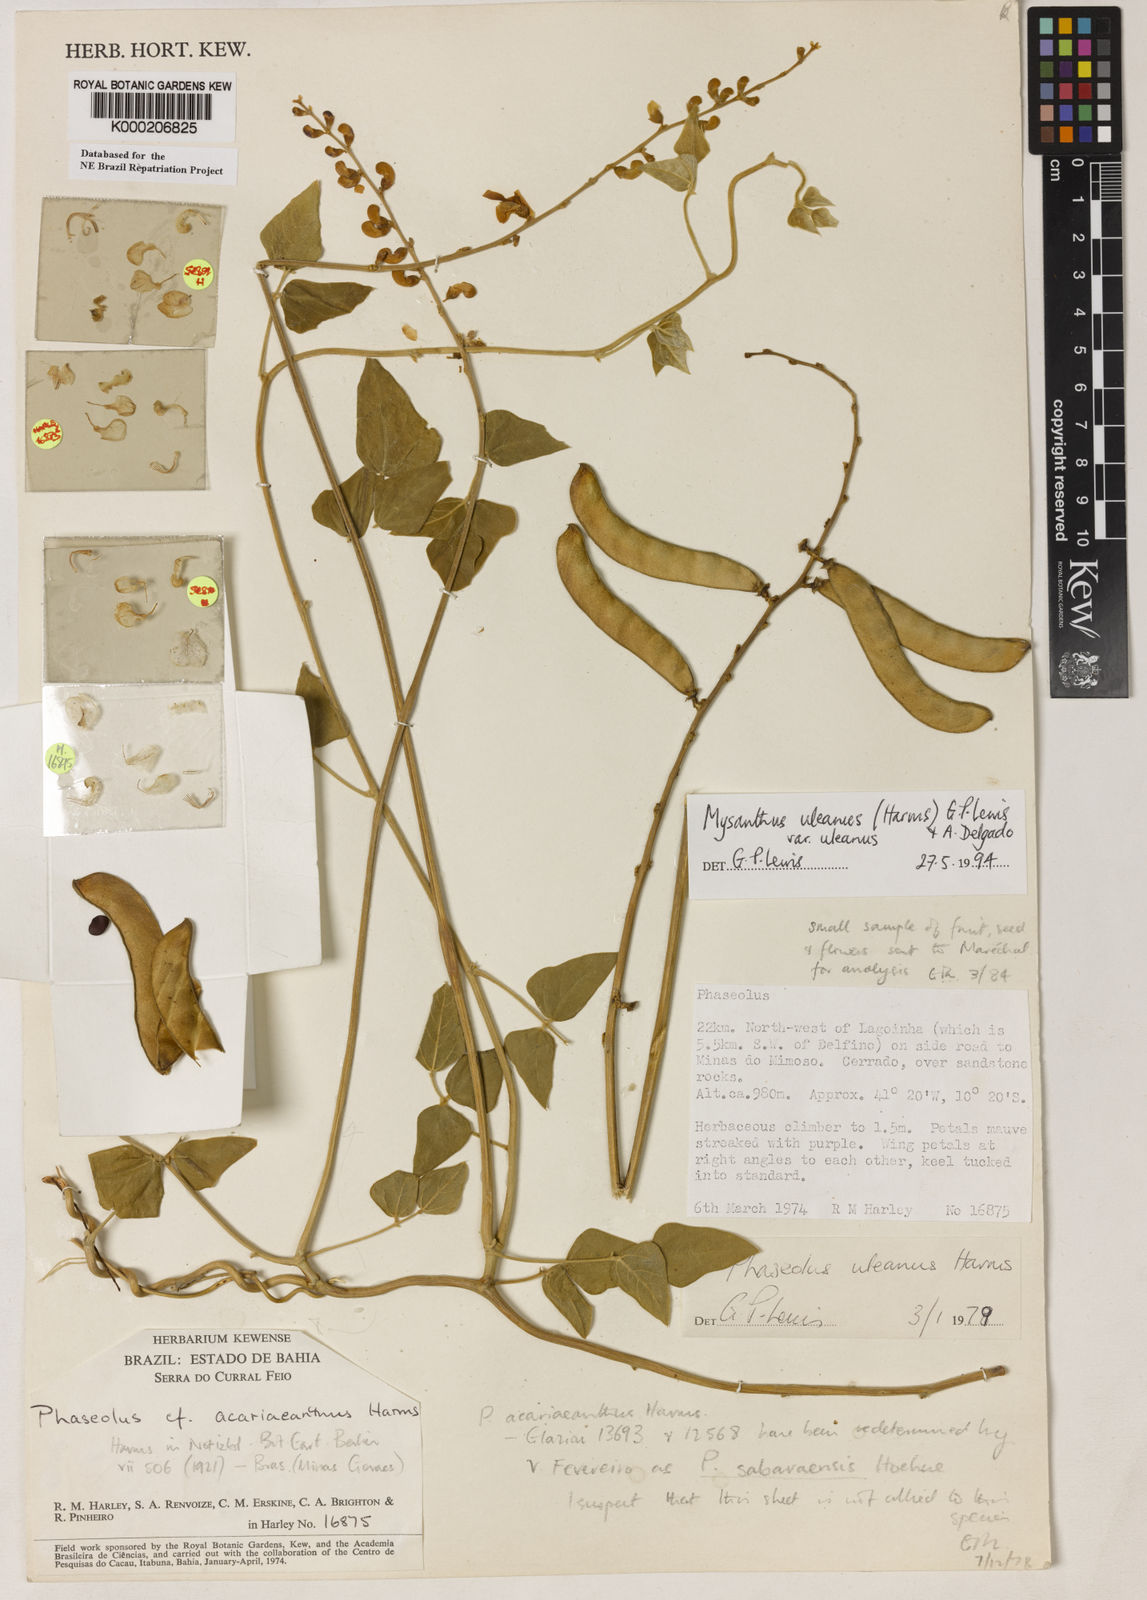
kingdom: Plantae
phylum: Tracheophyta
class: Magnoliopsida
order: Fabales
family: Fabaceae
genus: Mysanthus
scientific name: Mysanthus uleanus
